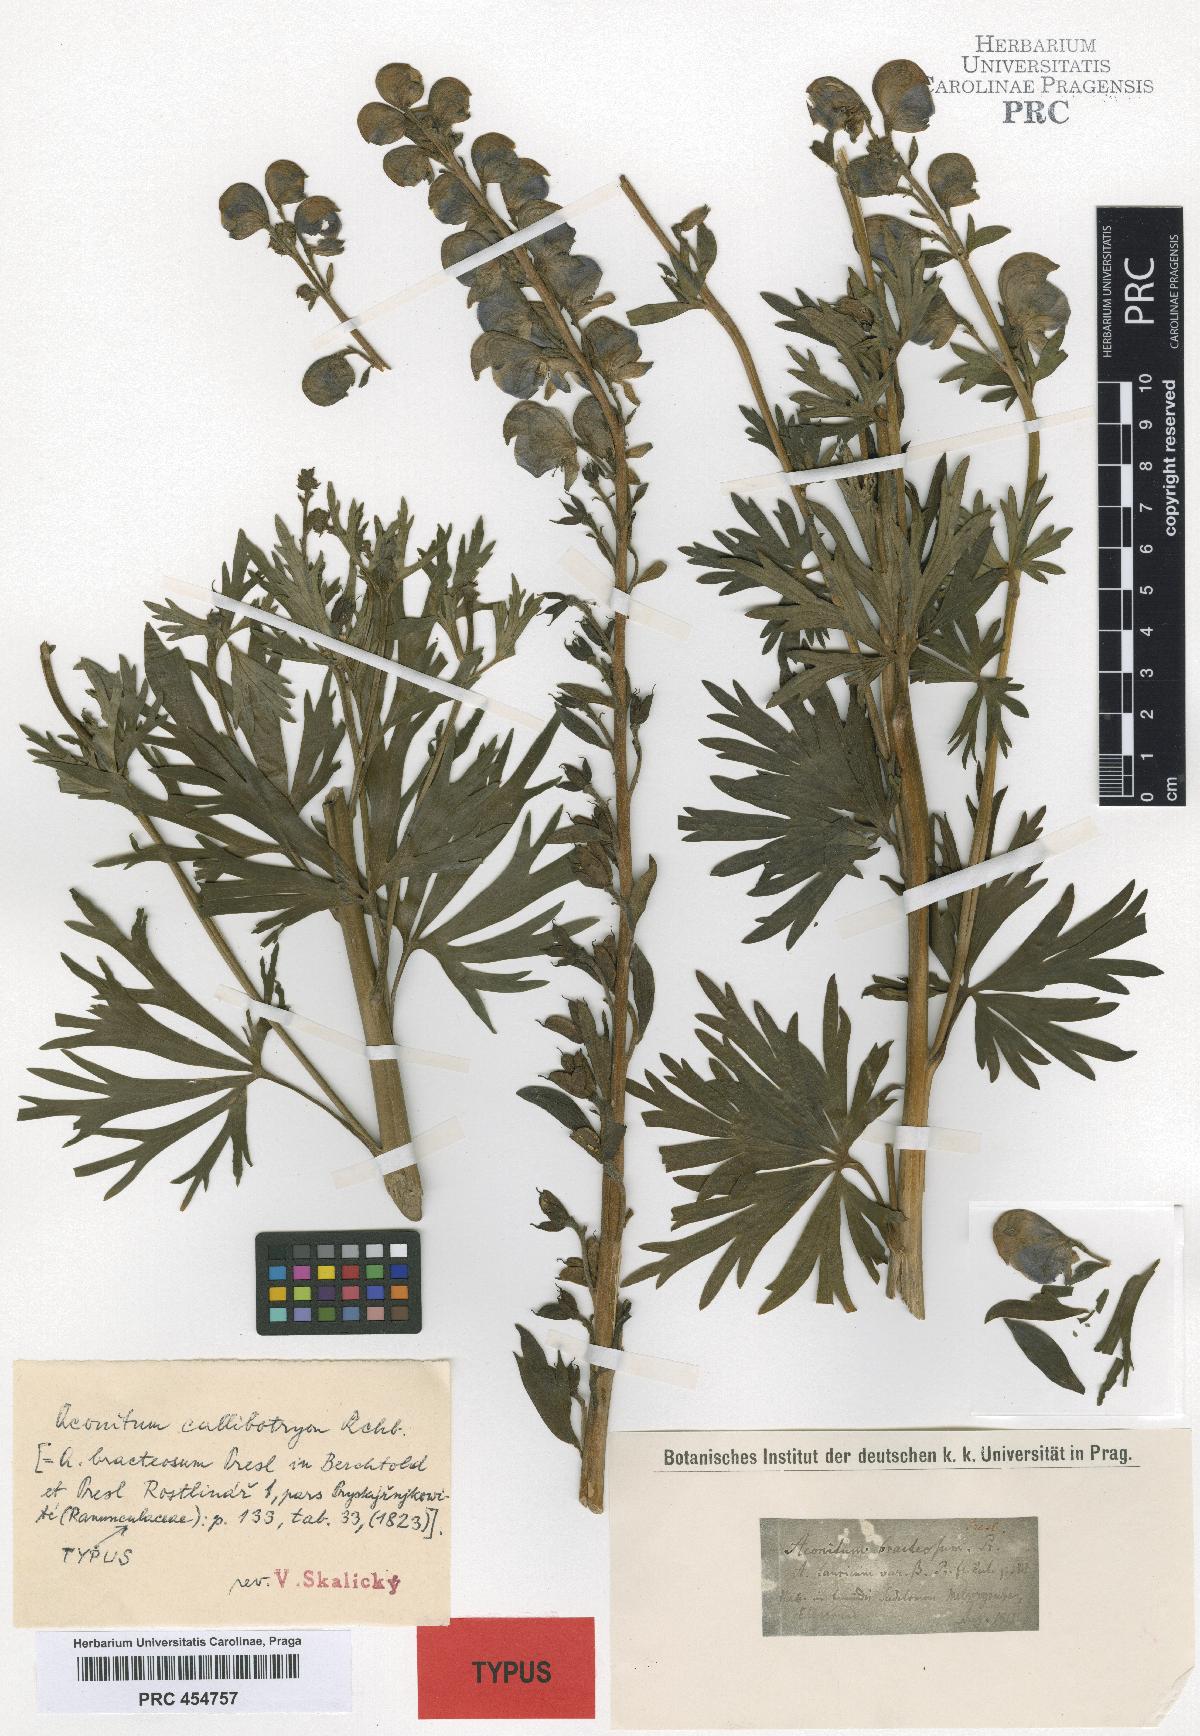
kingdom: Plantae
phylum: Tracheophyta
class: Magnoliopsida
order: Ranunculales
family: Ranunculaceae
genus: Aconitum
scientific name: Aconitum plicatum
